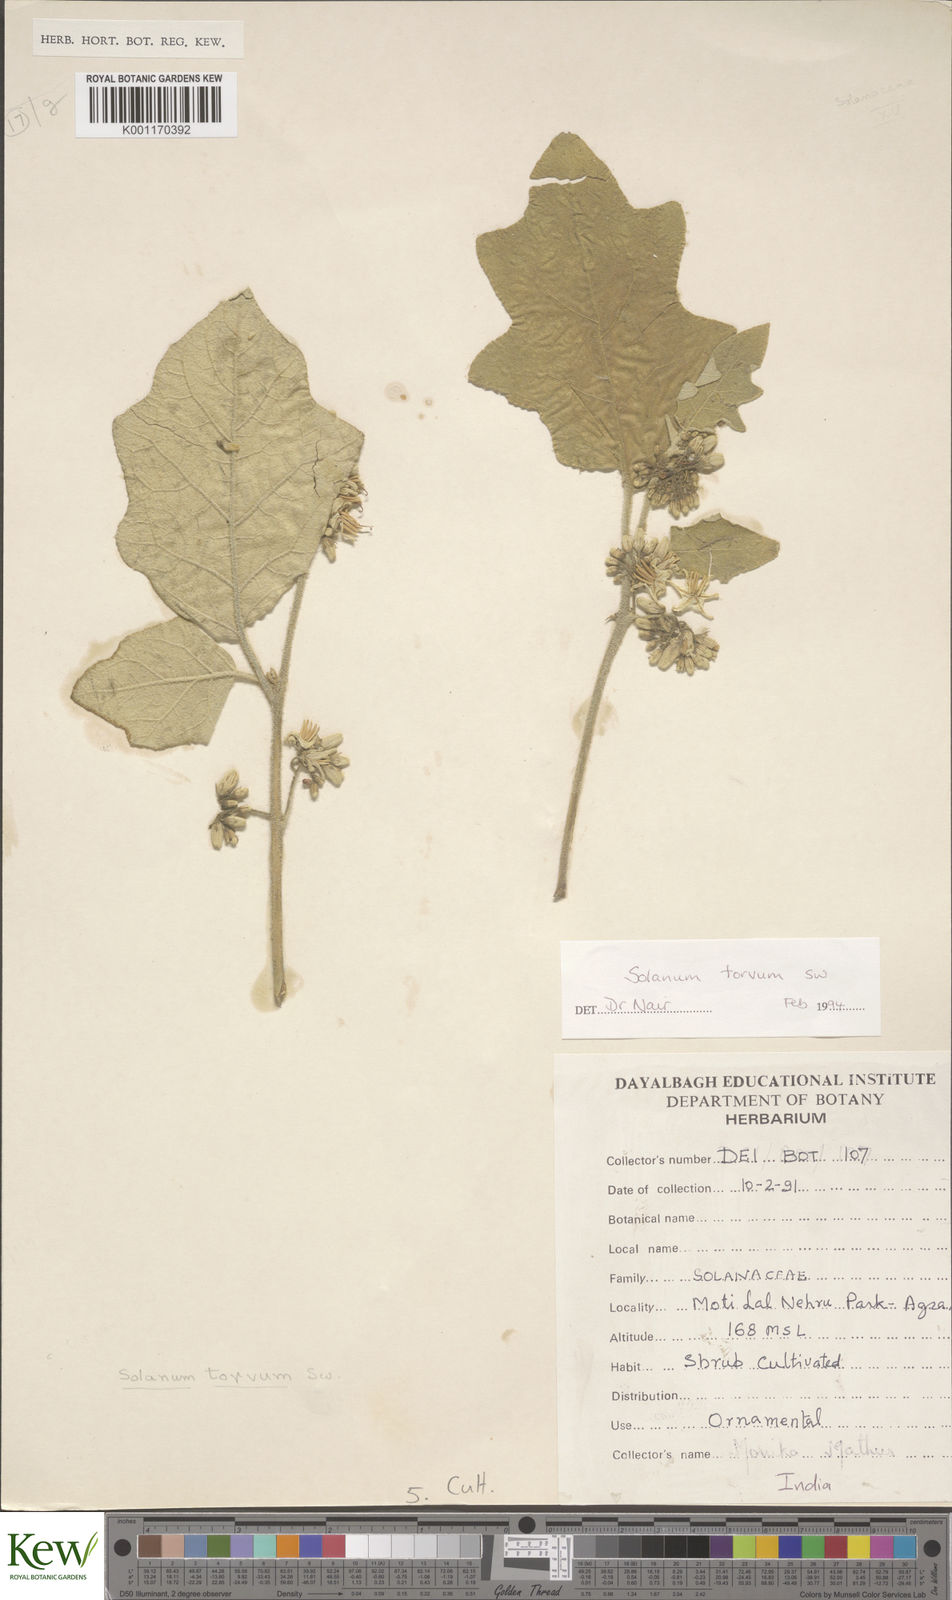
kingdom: Plantae
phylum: Tracheophyta
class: Magnoliopsida
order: Solanales
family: Solanaceae
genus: Solanum
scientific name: Solanum torvum
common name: Turkey berry
